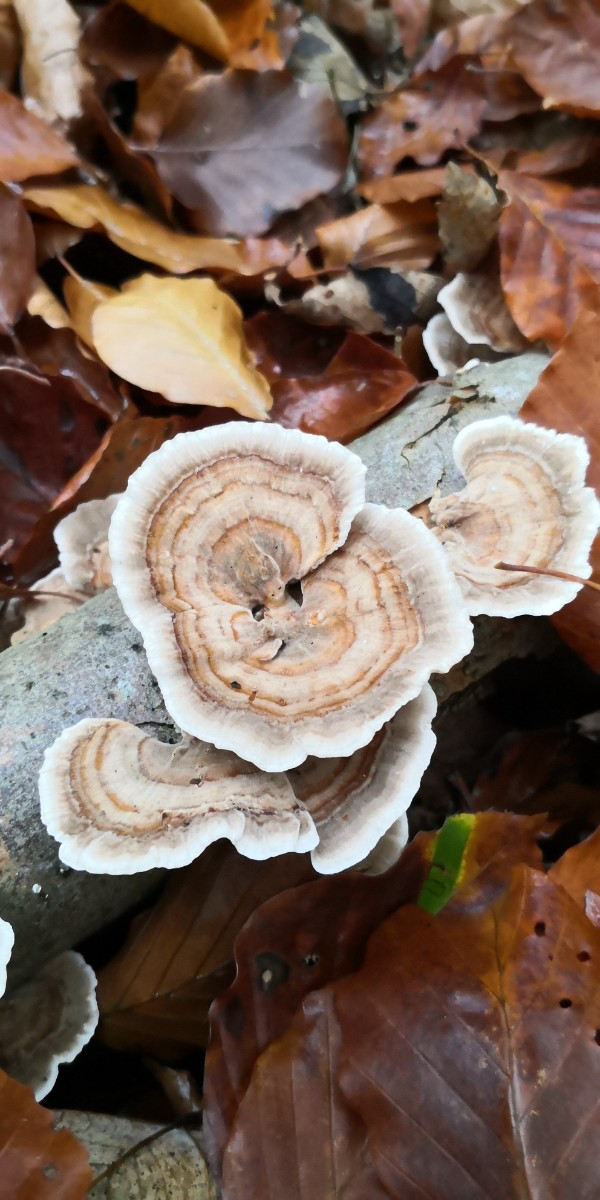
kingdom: Fungi
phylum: Basidiomycota
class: Agaricomycetes
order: Polyporales
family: Polyporaceae
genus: Trametes
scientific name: Trametes versicolor
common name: broget læderporesvamp
